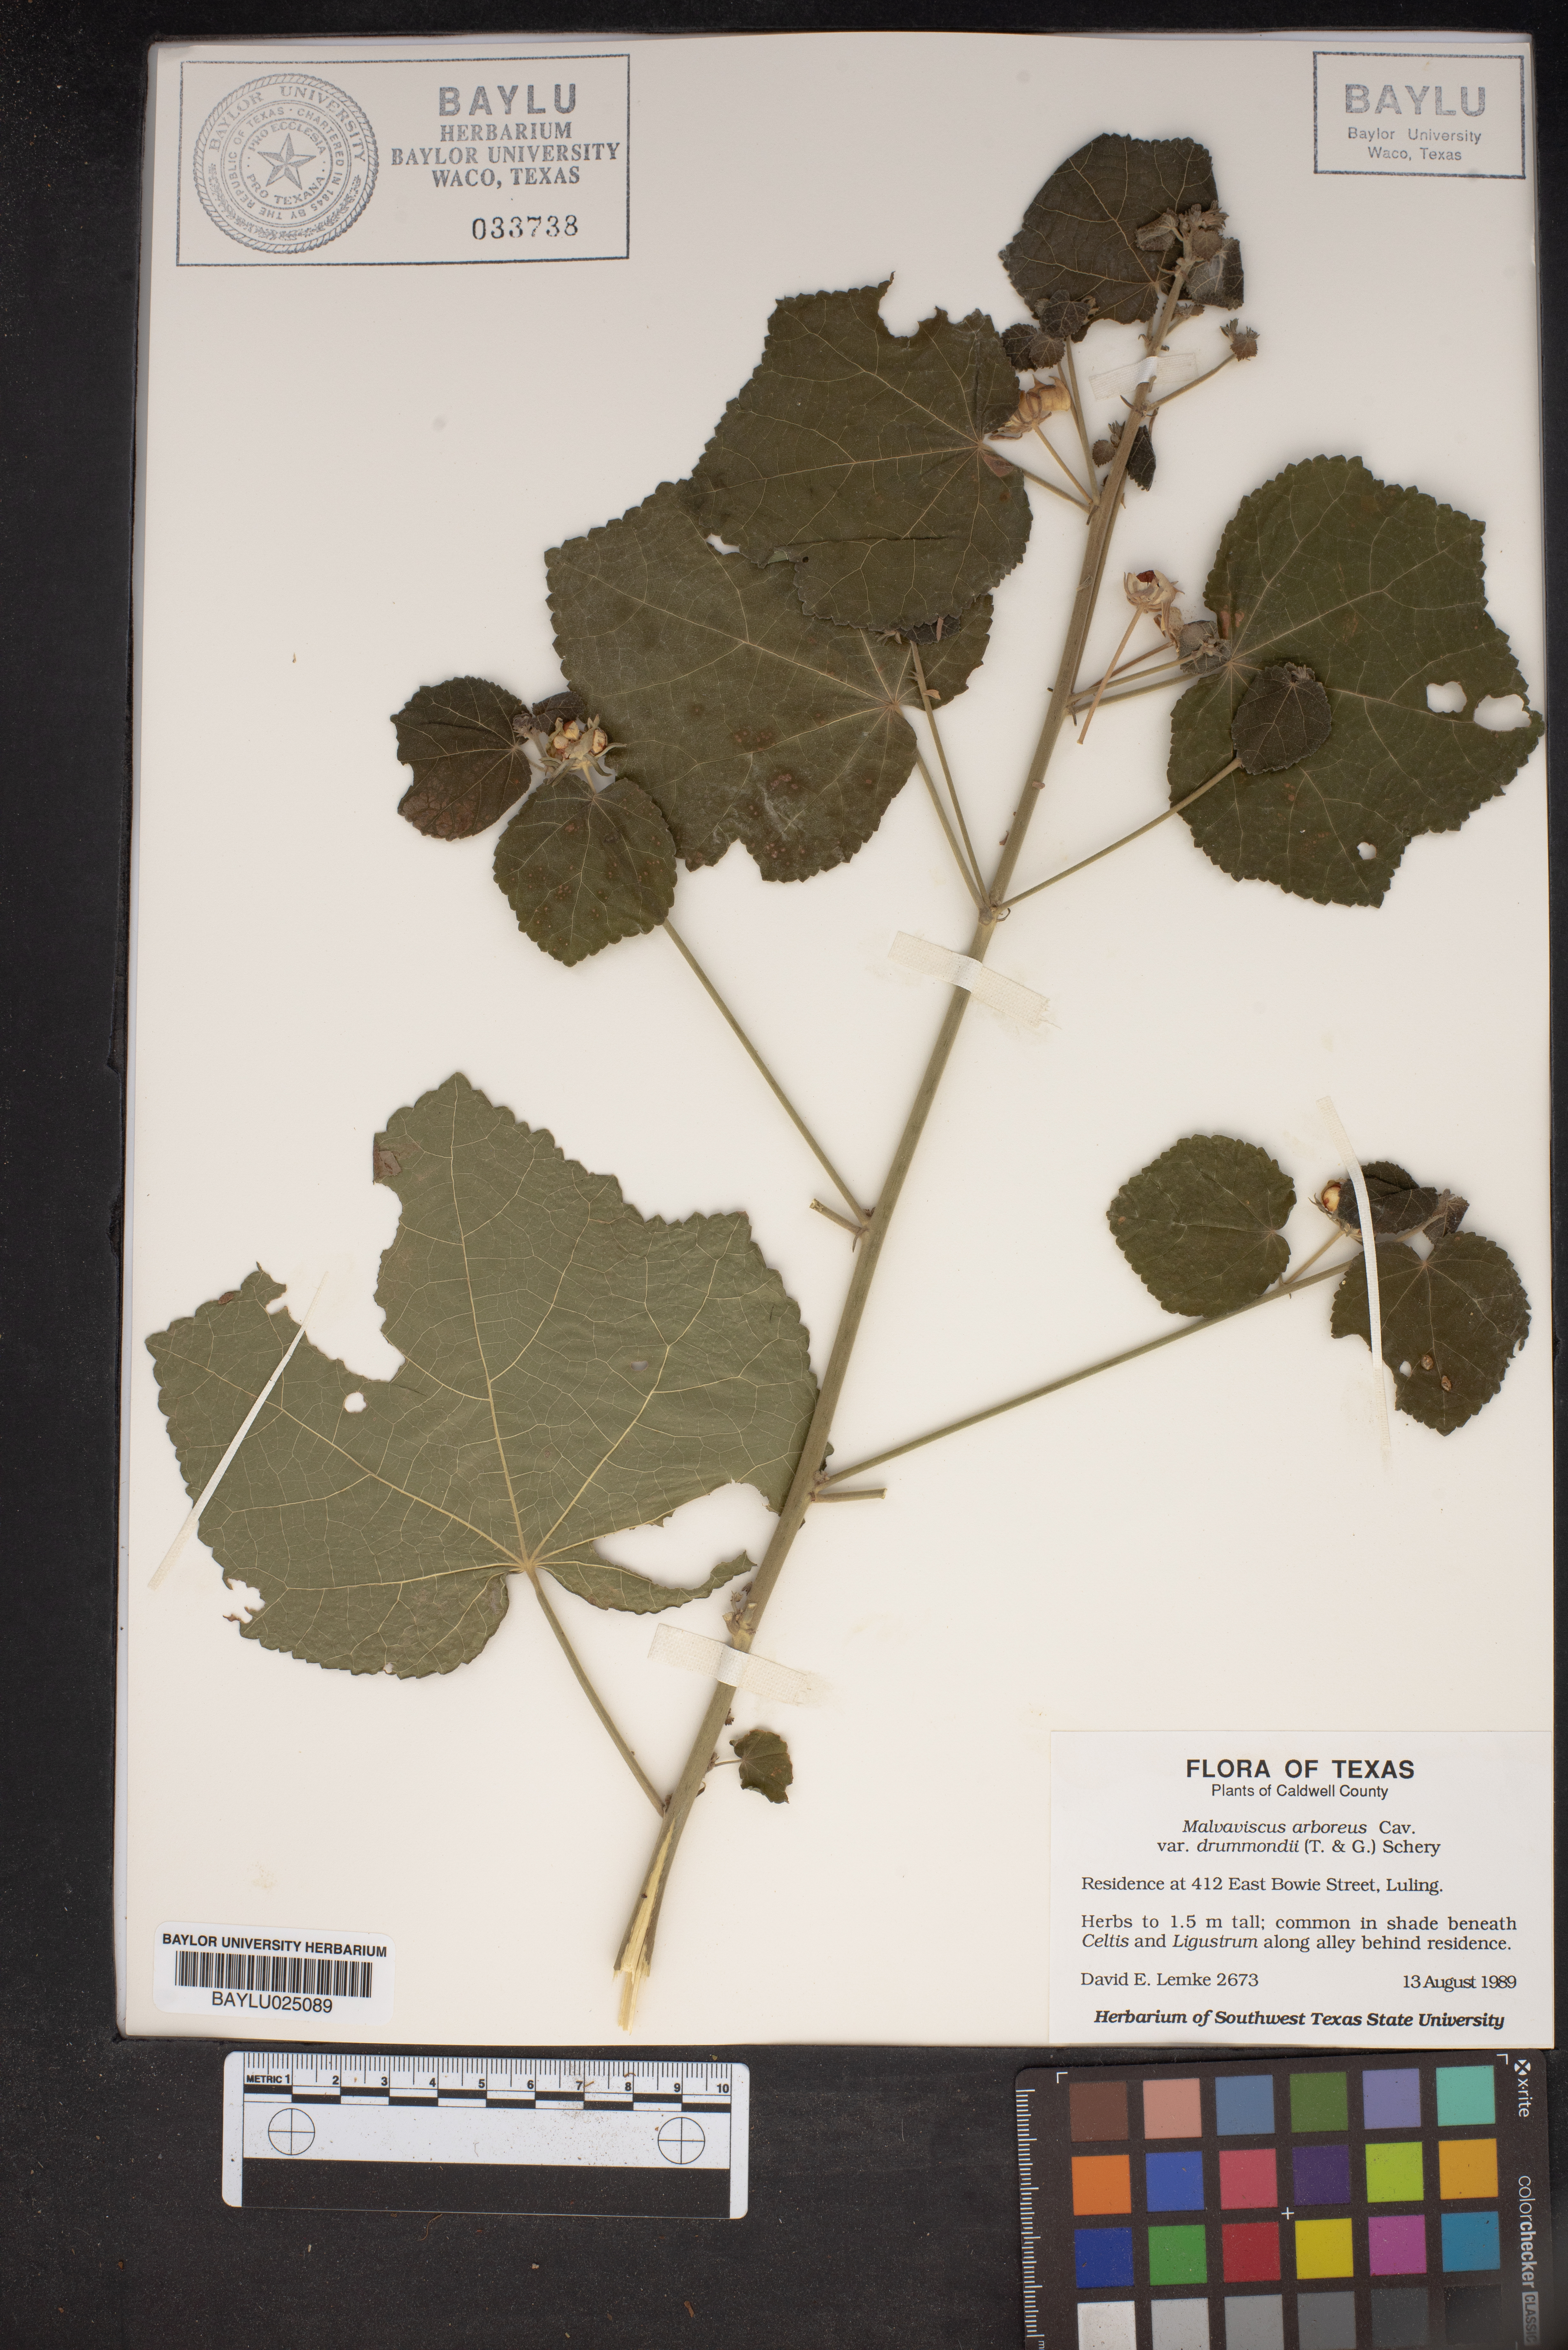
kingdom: Plantae
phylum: Tracheophyta
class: Magnoliopsida
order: Malvales
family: Malvaceae
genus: Malvaviscus
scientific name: Malvaviscus arboreus
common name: Wax mallow
